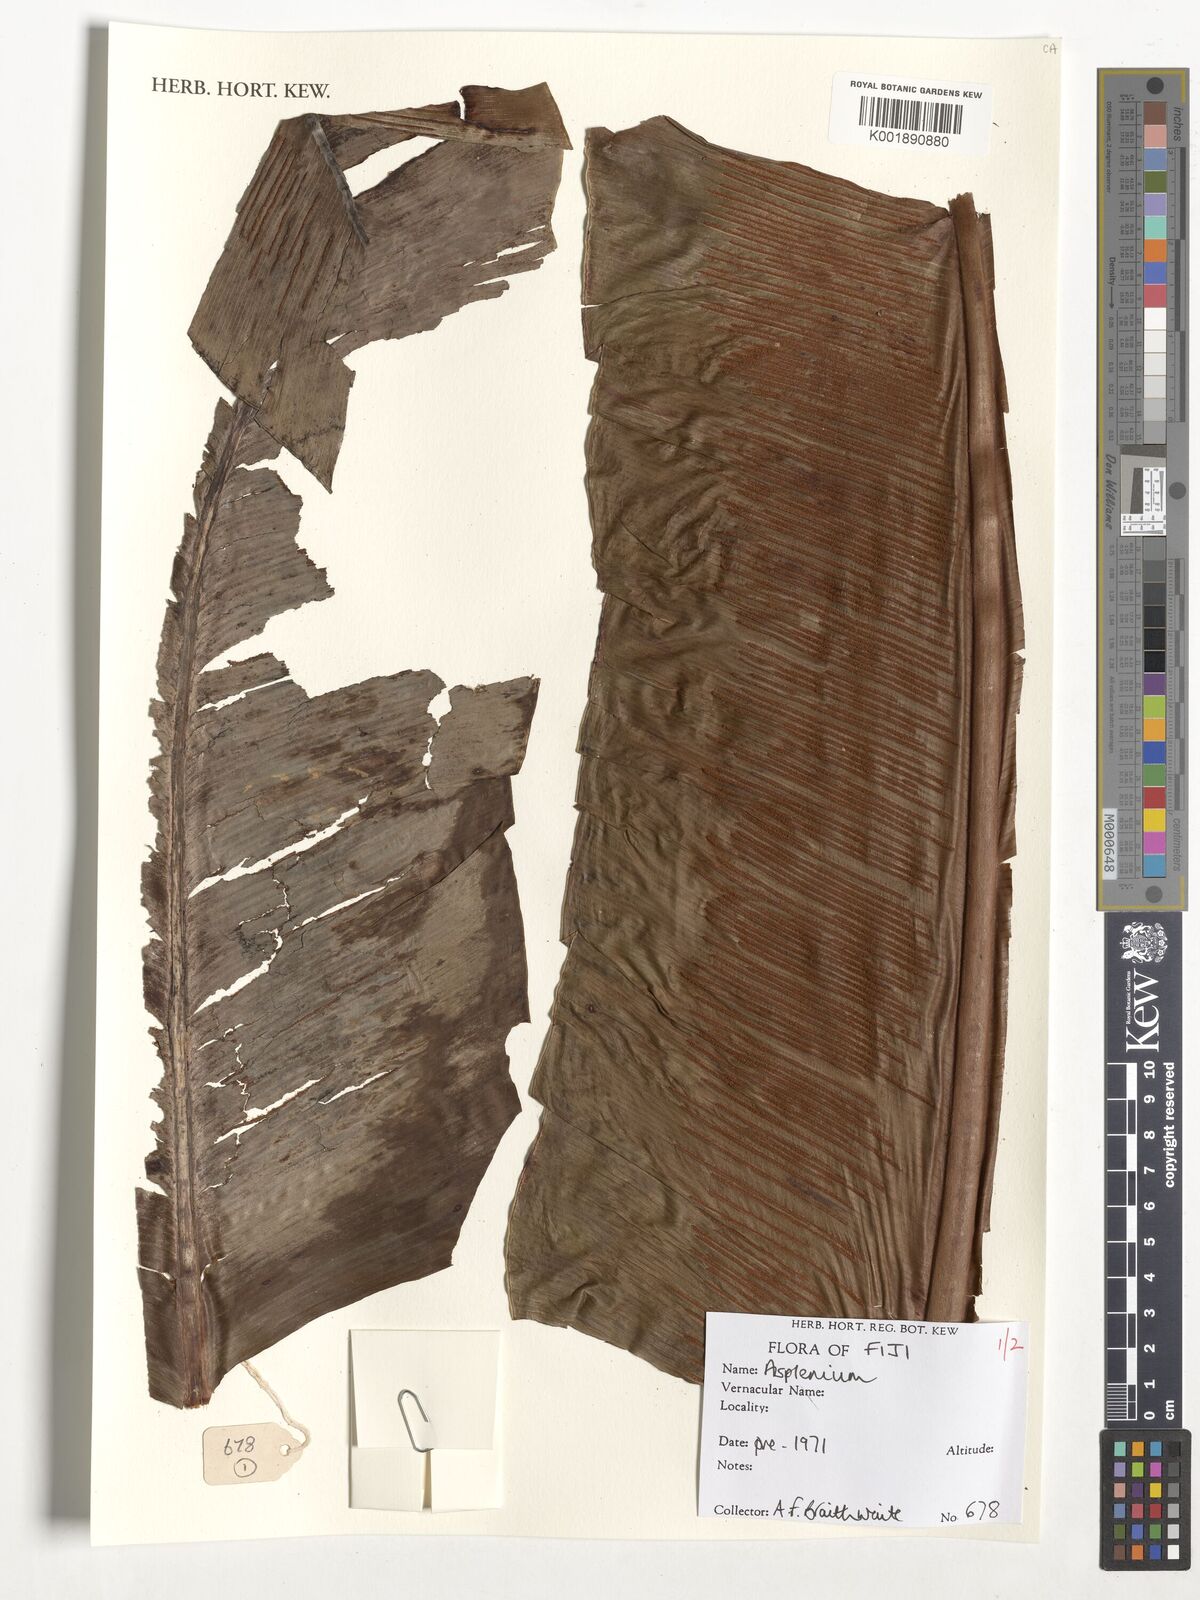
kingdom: Plantae
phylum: Tracheophyta
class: Polypodiopsida
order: Polypodiales
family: Aspleniaceae
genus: Asplenium
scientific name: Asplenium
